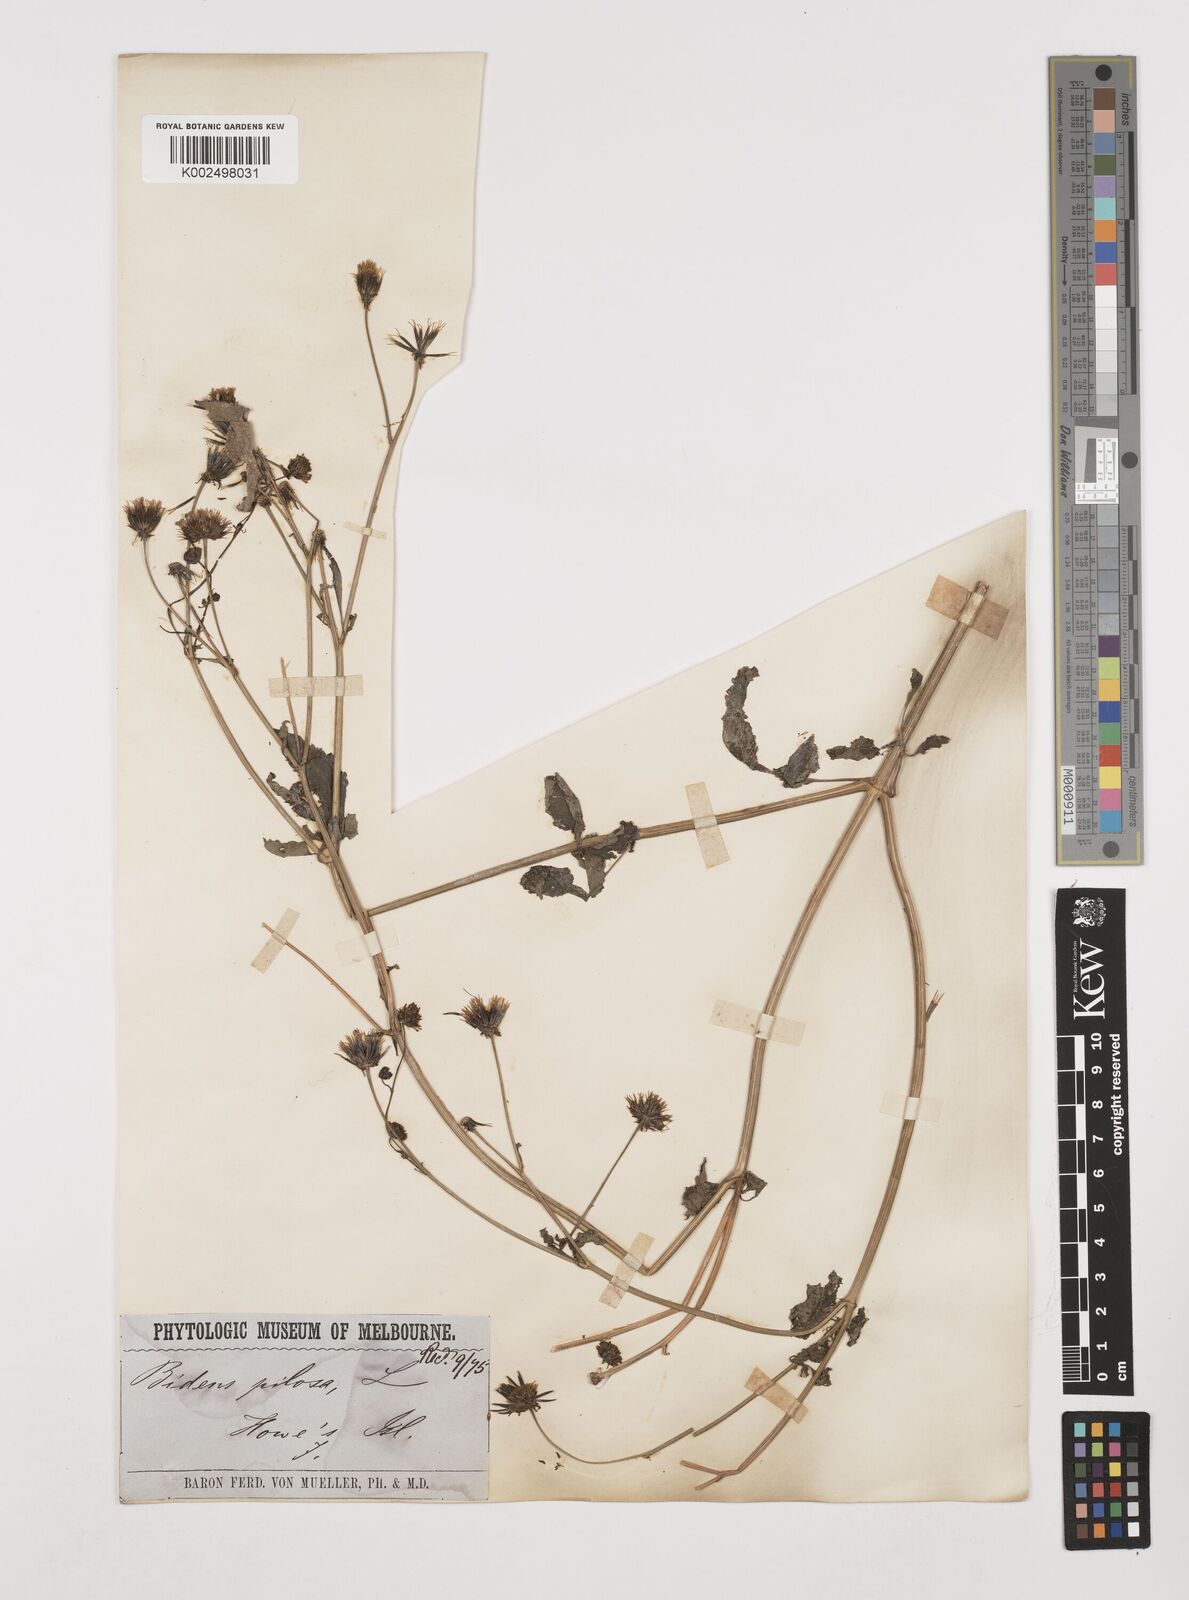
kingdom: Plantae
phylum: Tracheophyta
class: Magnoliopsida
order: Asterales
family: Asteraceae
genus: Bidens
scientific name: Bidens pilosa
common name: Black-jack
